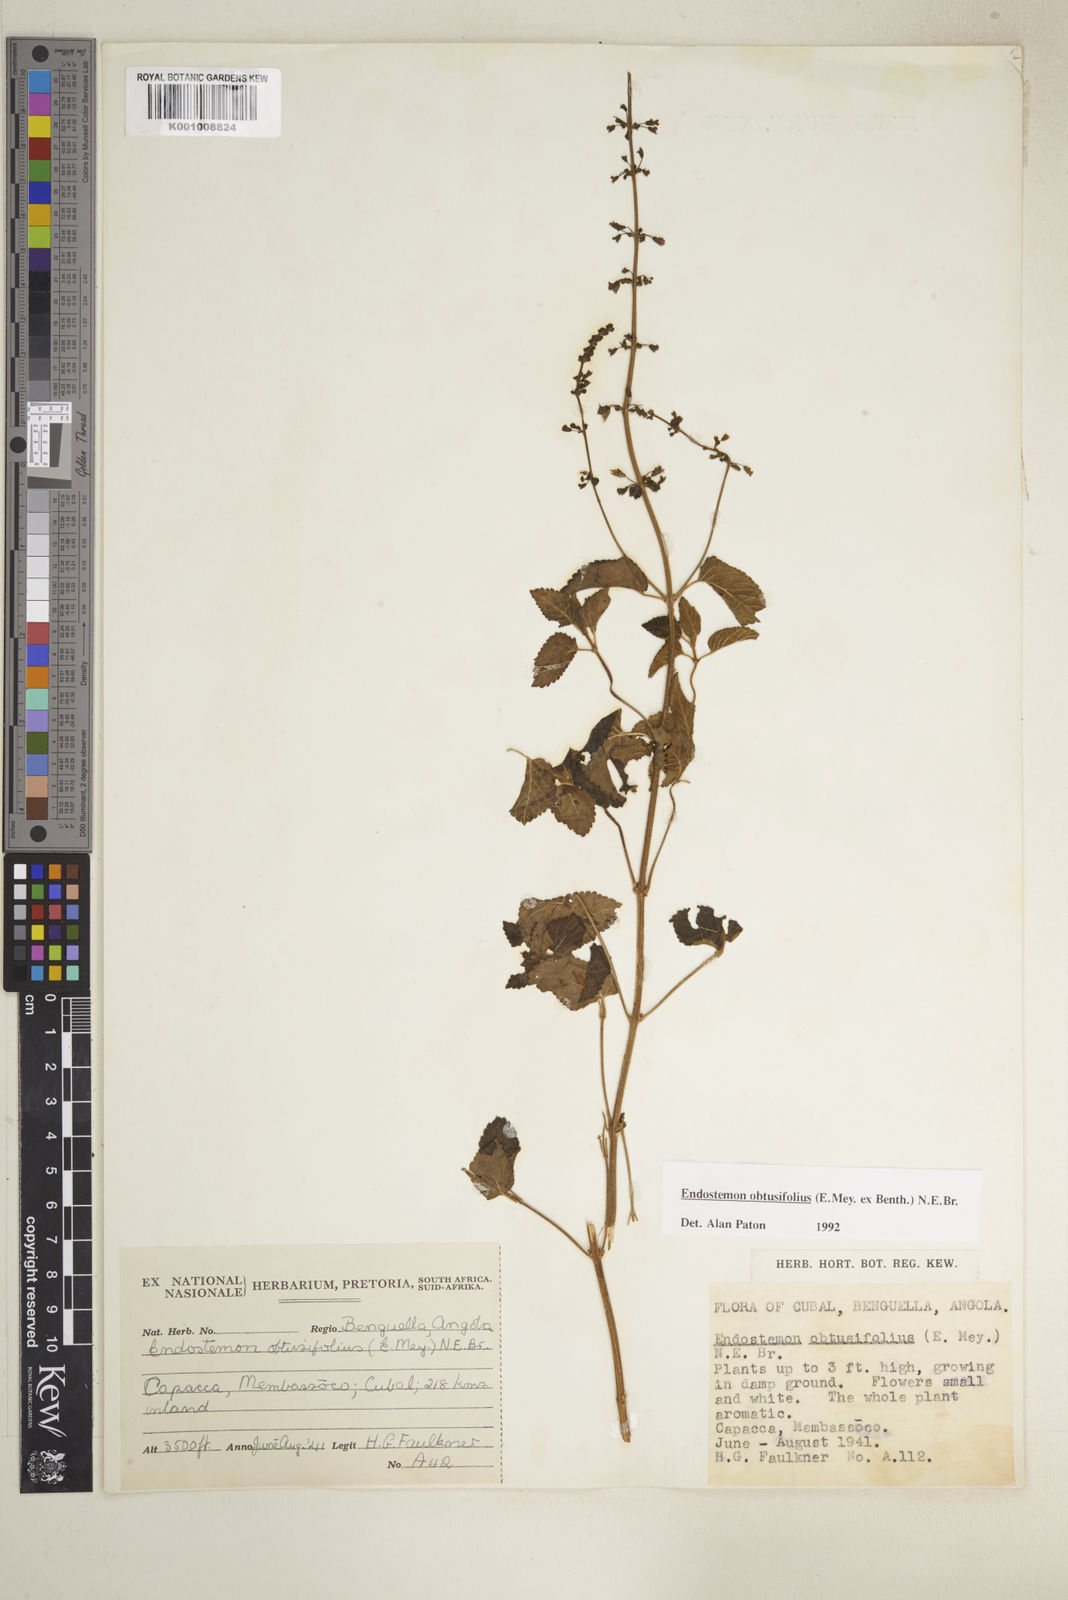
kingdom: Plantae
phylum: Tracheophyta
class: Magnoliopsida
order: Lamiales
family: Lamiaceae
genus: Endostemon
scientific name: Endostemon obtusifolius
